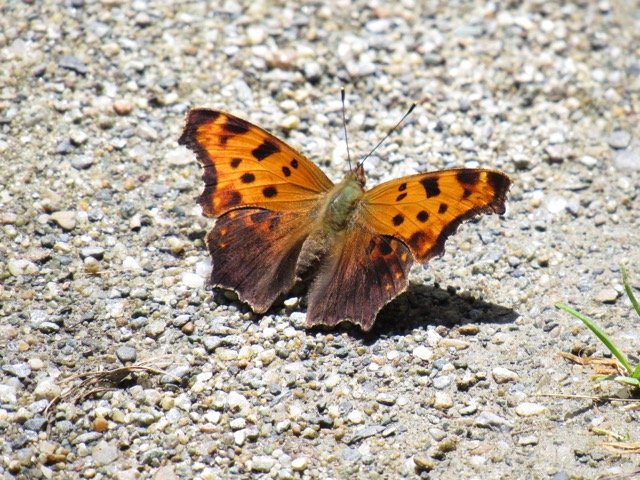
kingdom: Animalia
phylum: Arthropoda
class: Insecta
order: Lepidoptera
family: Nymphalidae
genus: Polygonia
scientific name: Polygonia comma
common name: Eastern Comma
